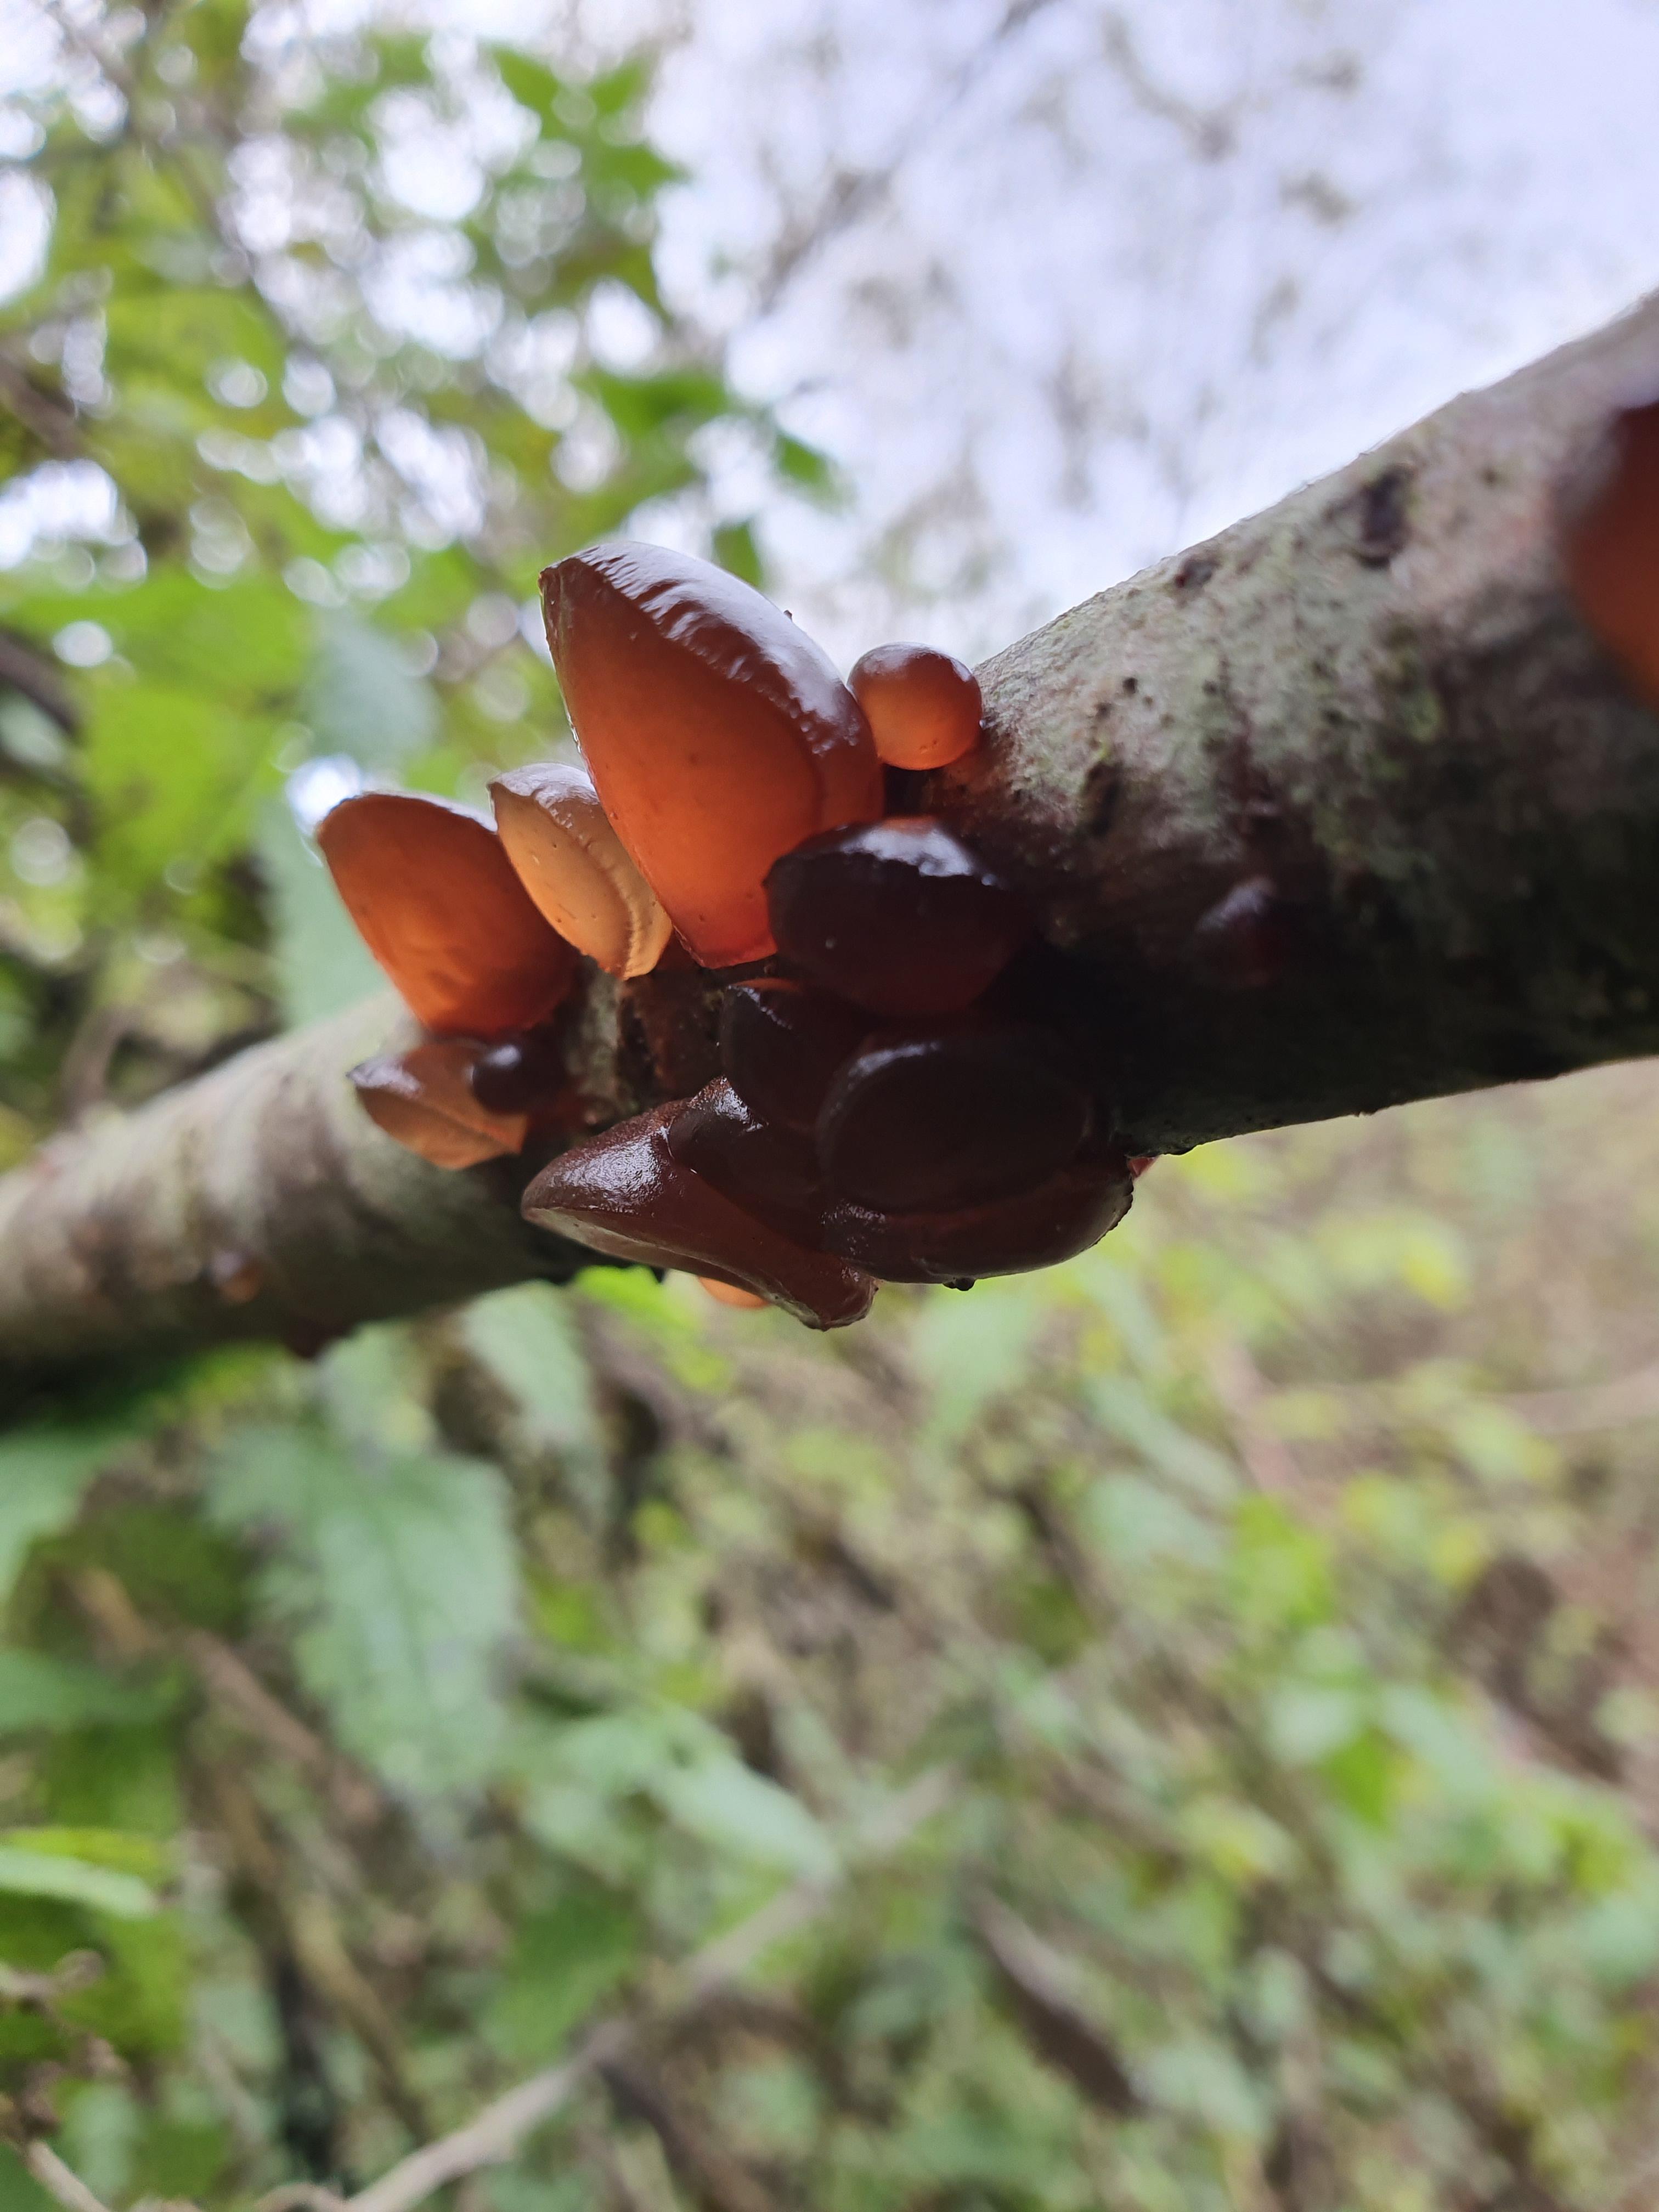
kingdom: Fungi
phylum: Basidiomycota
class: Agaricomycetes
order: Auriculariales
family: Auriculariaceae
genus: Exidia
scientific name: Exidia recisa
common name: pile-bævretop
